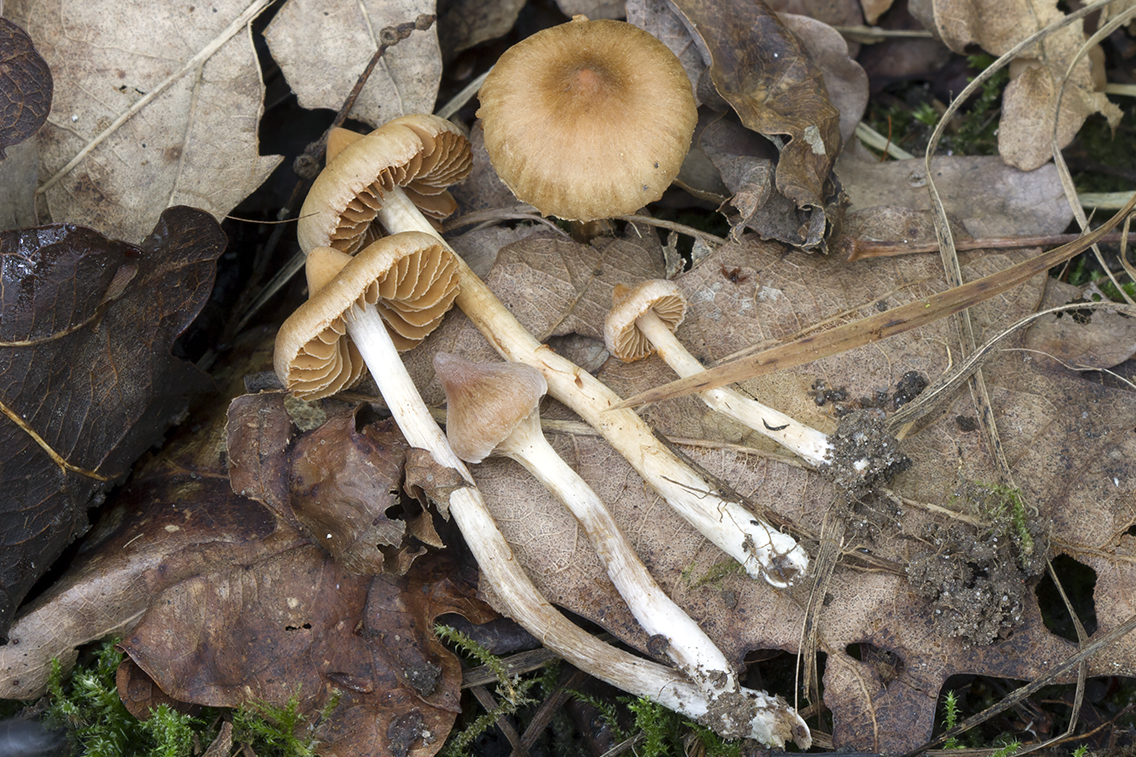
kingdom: Fungi
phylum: Basidiomycota
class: Agaricomycetes
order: Agaricales
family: Cortinariaceae
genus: Cortinarius
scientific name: Cortinarius quercoconicus
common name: agernskål-slørhat
